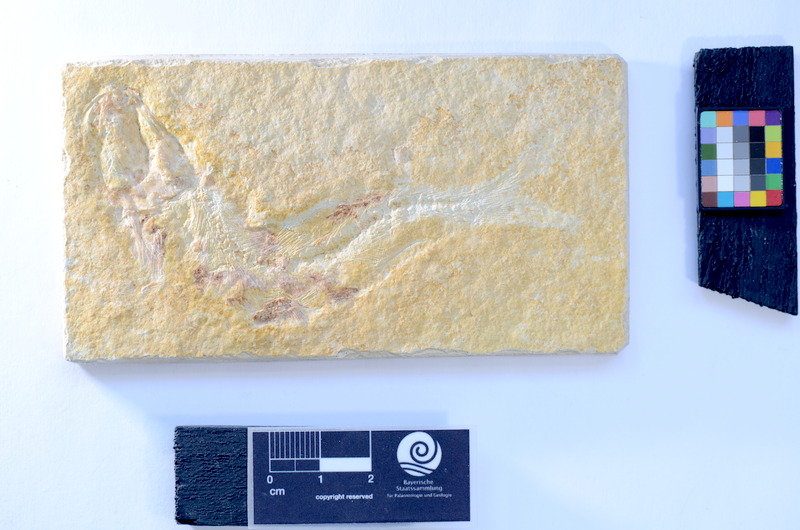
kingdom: Animalia
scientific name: Animalia
